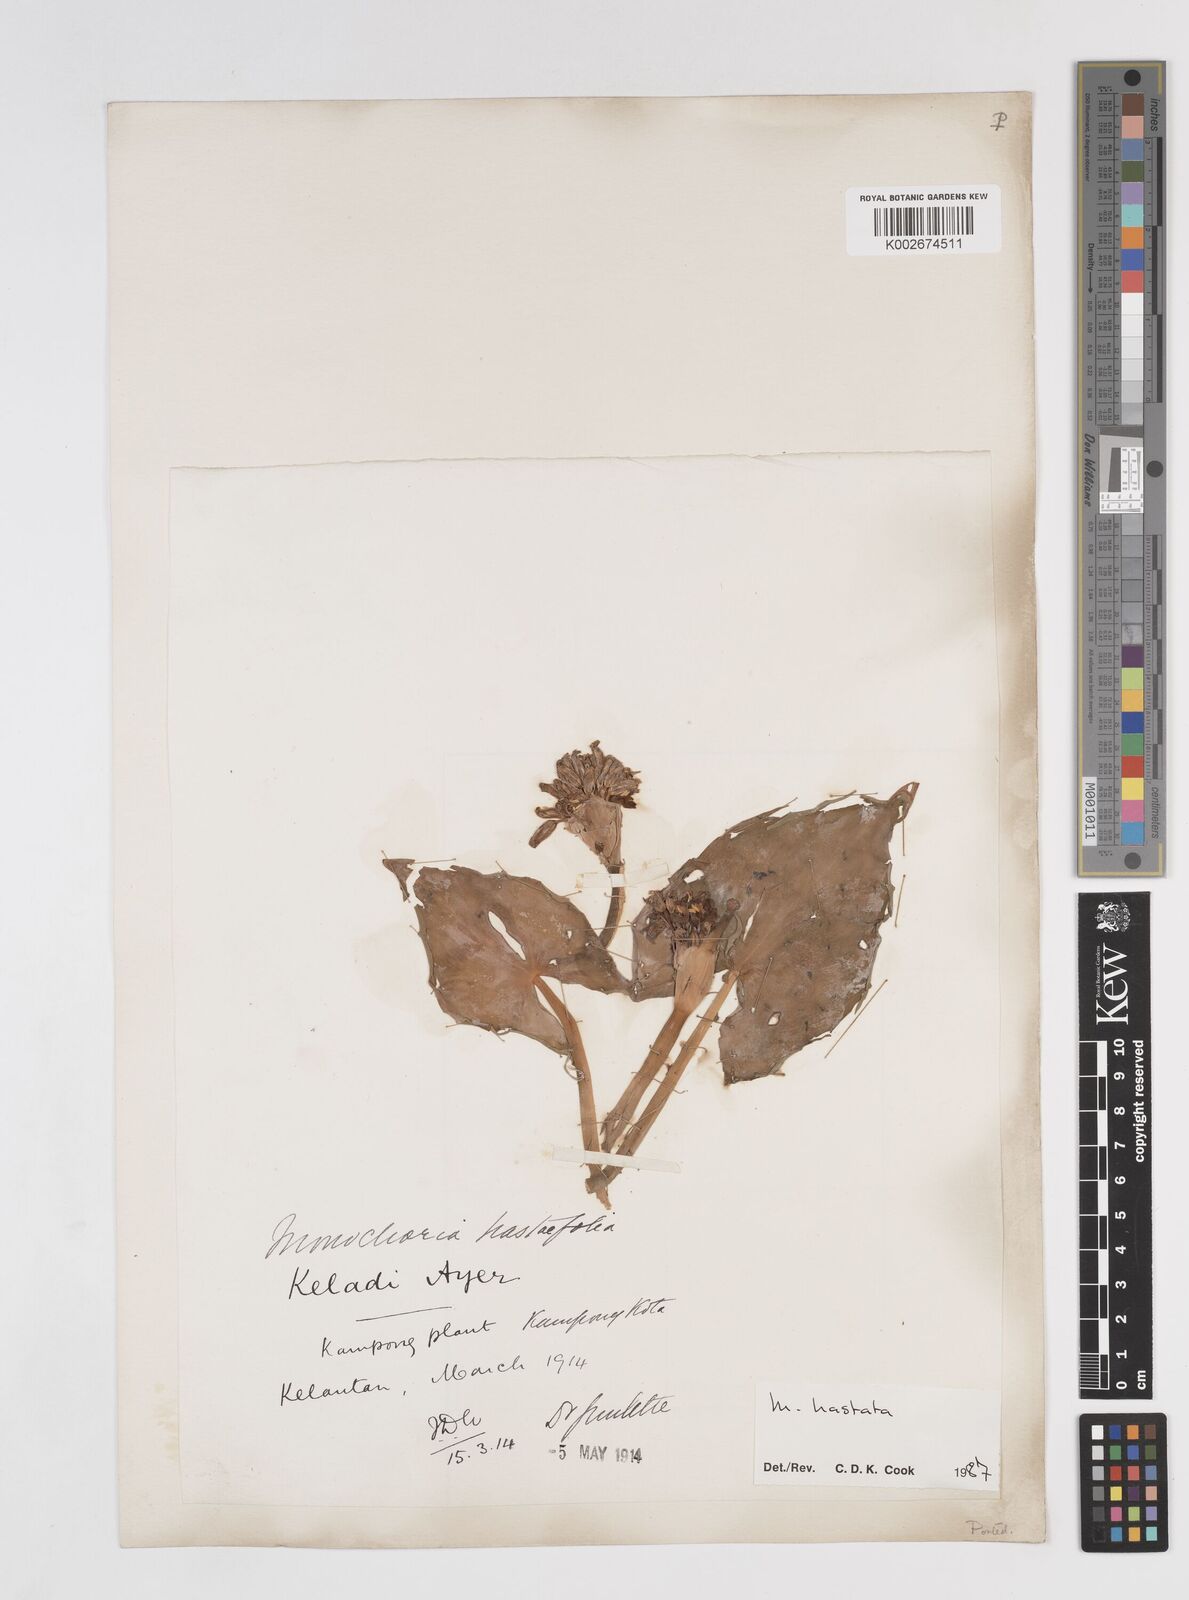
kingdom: Plantae
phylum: Tracheophyta
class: Liliopsida
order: Commelinales
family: Pontederiaceae
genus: Pontederia
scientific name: Pontederia vaginalis
